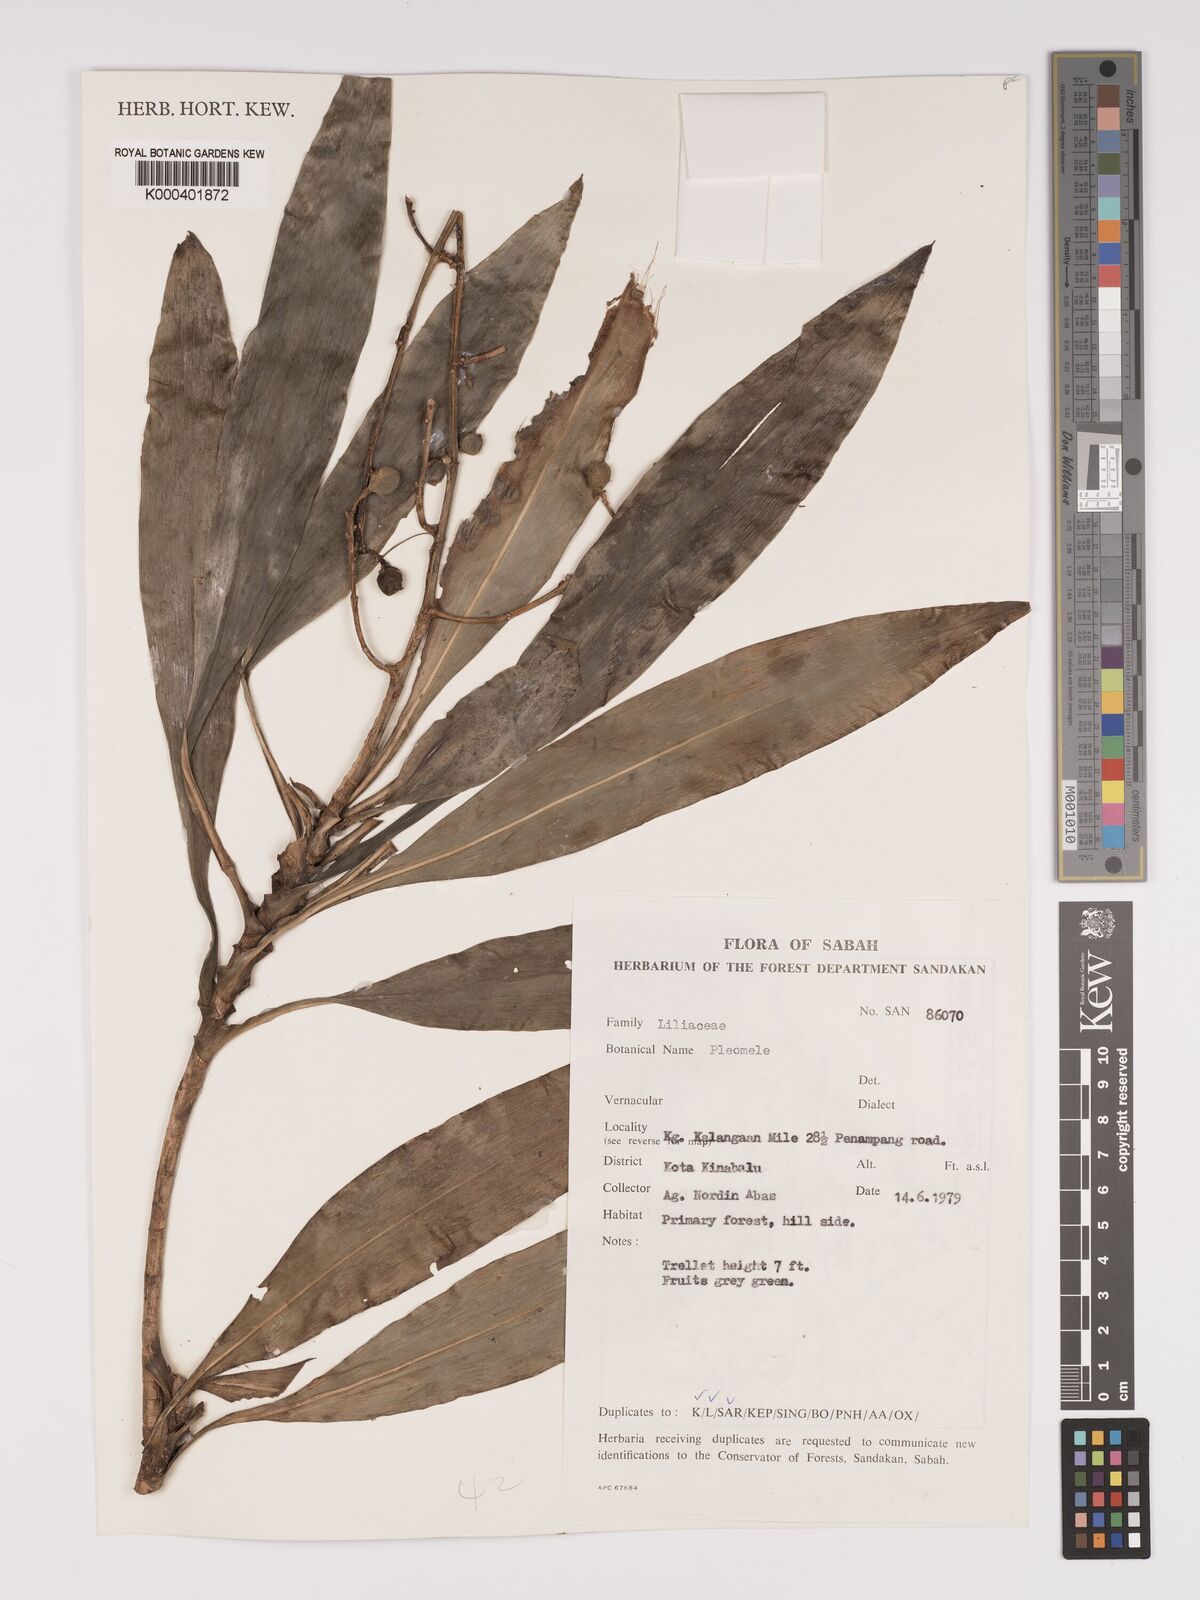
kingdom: Plantae
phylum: Tracheophyta
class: Liliopsida
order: Asparagales
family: Asparagaceae
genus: Dracaena
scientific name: Dracaena
